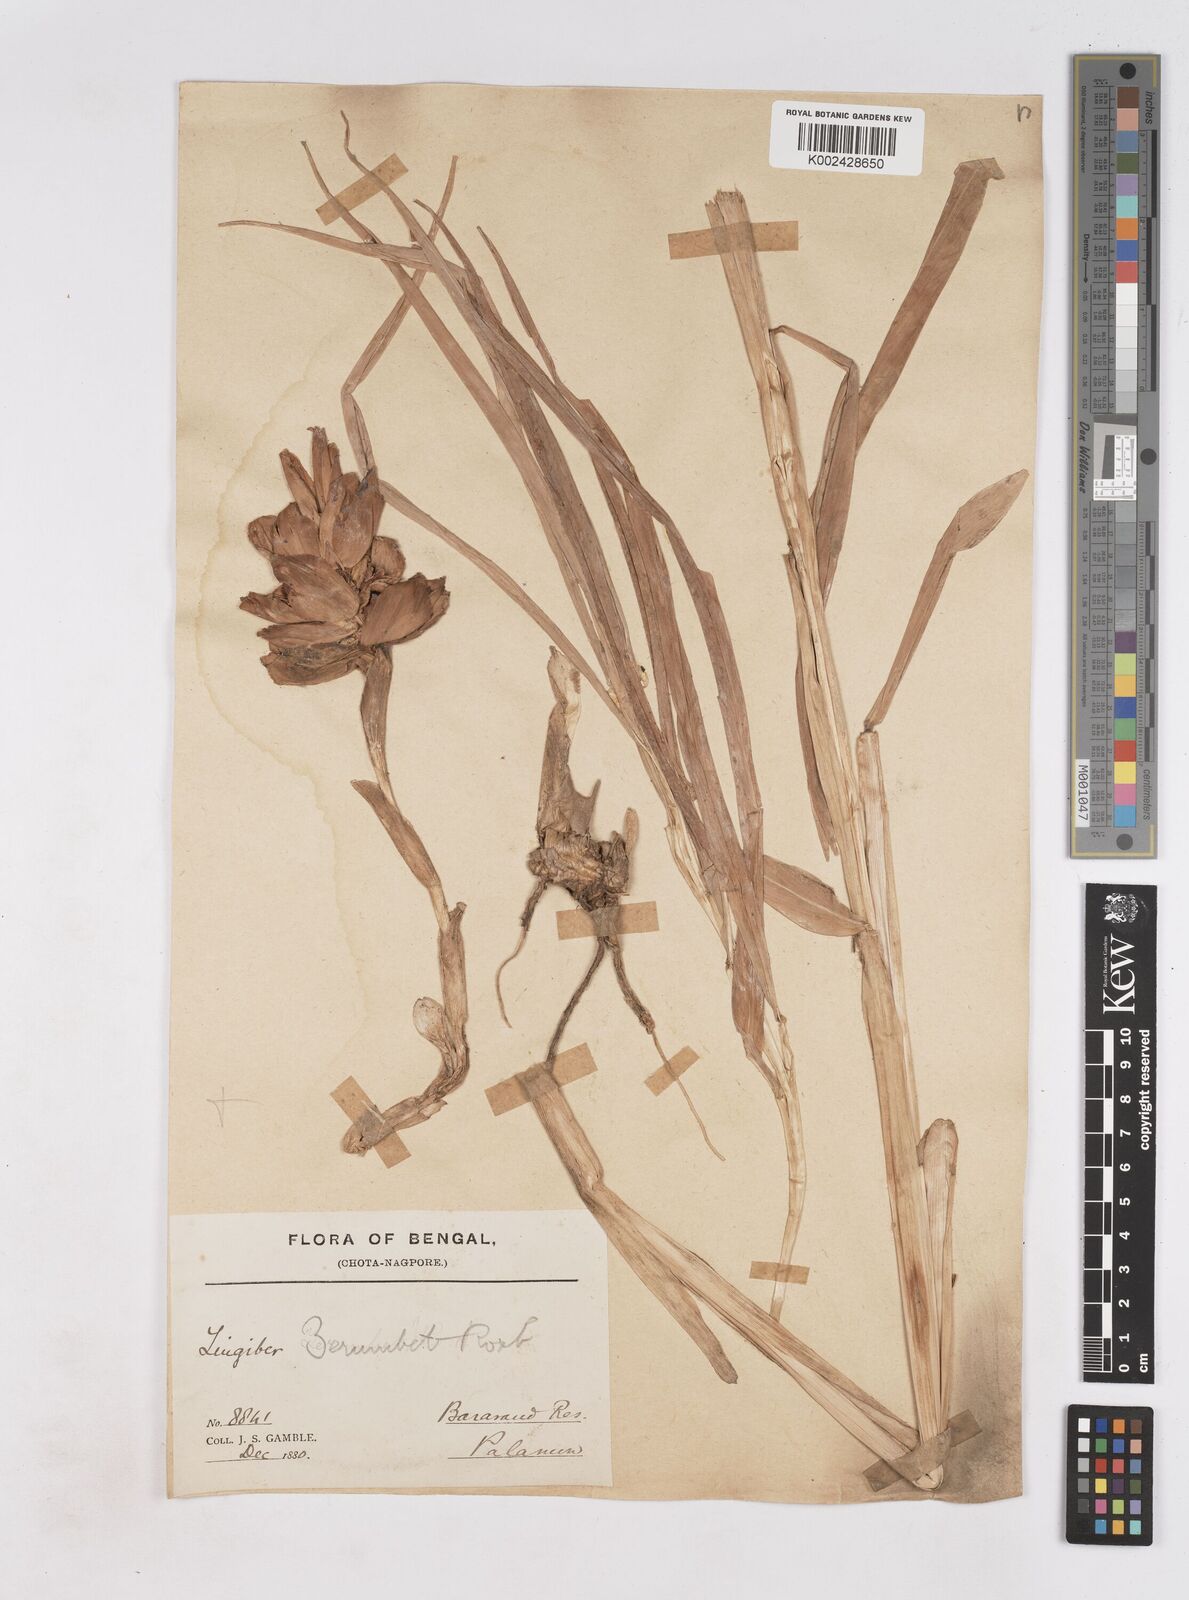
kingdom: Plantae
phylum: Tracheophyta
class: Liliopsida
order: Zingiberales
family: Zingiberaceae
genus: Zingiber
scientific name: Zingiber zerumbet
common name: Bitter ginger
